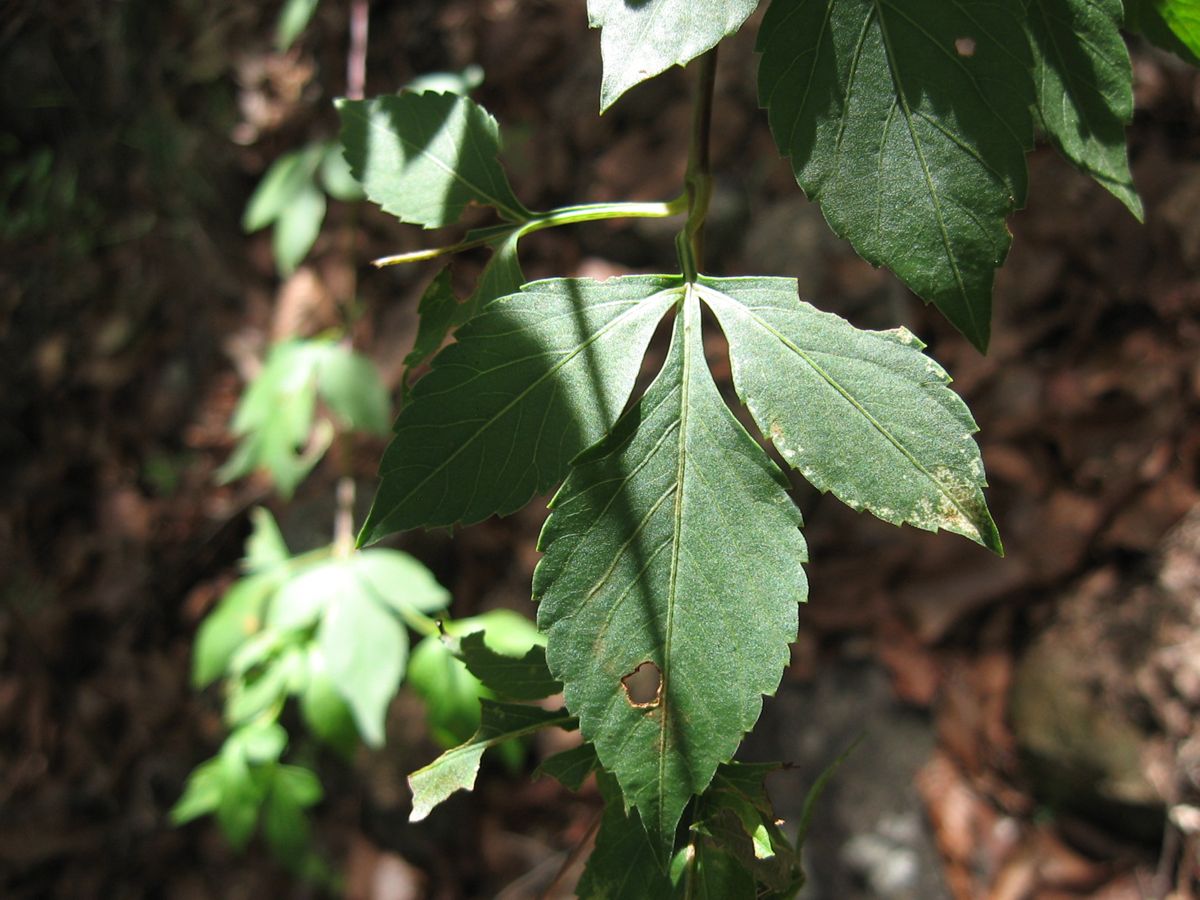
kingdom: Plantae
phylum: Tracheophyta
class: Magnoliopsida
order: Asterales
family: Asteraceae
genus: Bidens
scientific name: Bidens reptans
